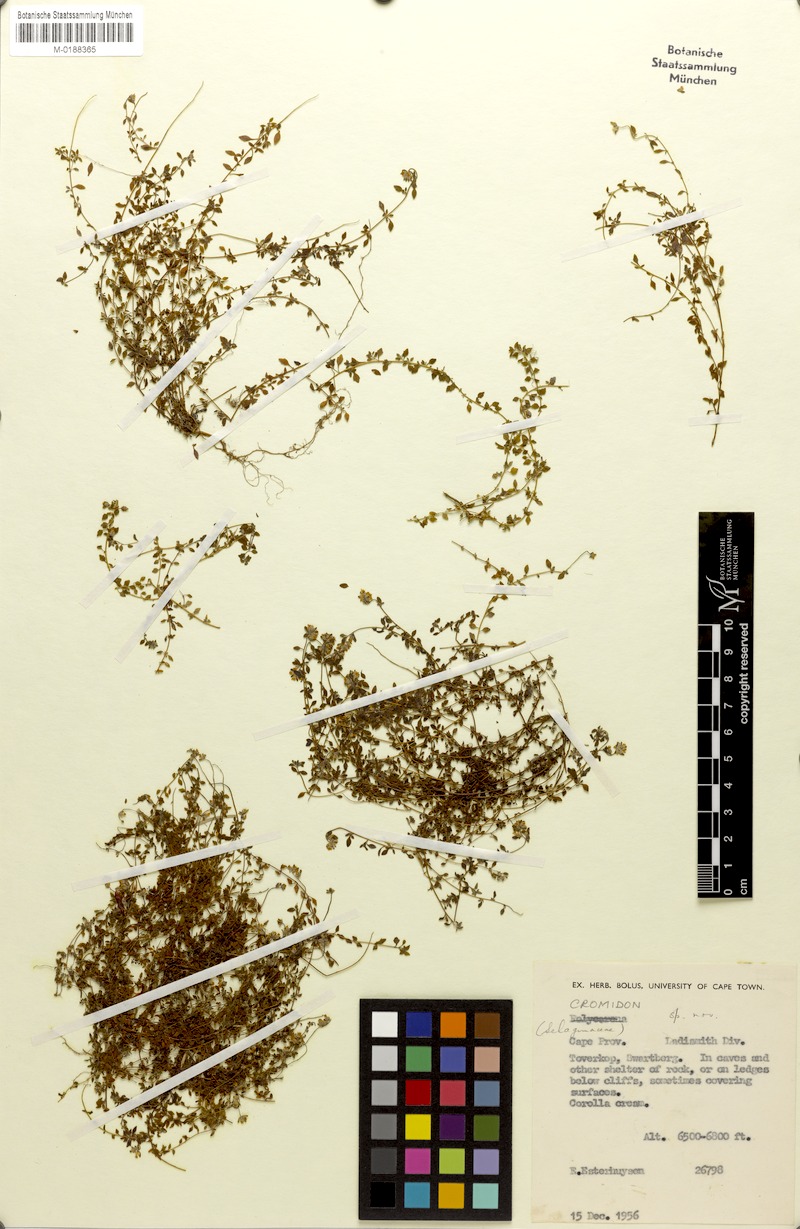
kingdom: Plantae
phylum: Tracheophyta
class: Magnoliopsida
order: Lamiales
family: Scrophulariaceae
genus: Cromidon
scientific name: Cromidon
